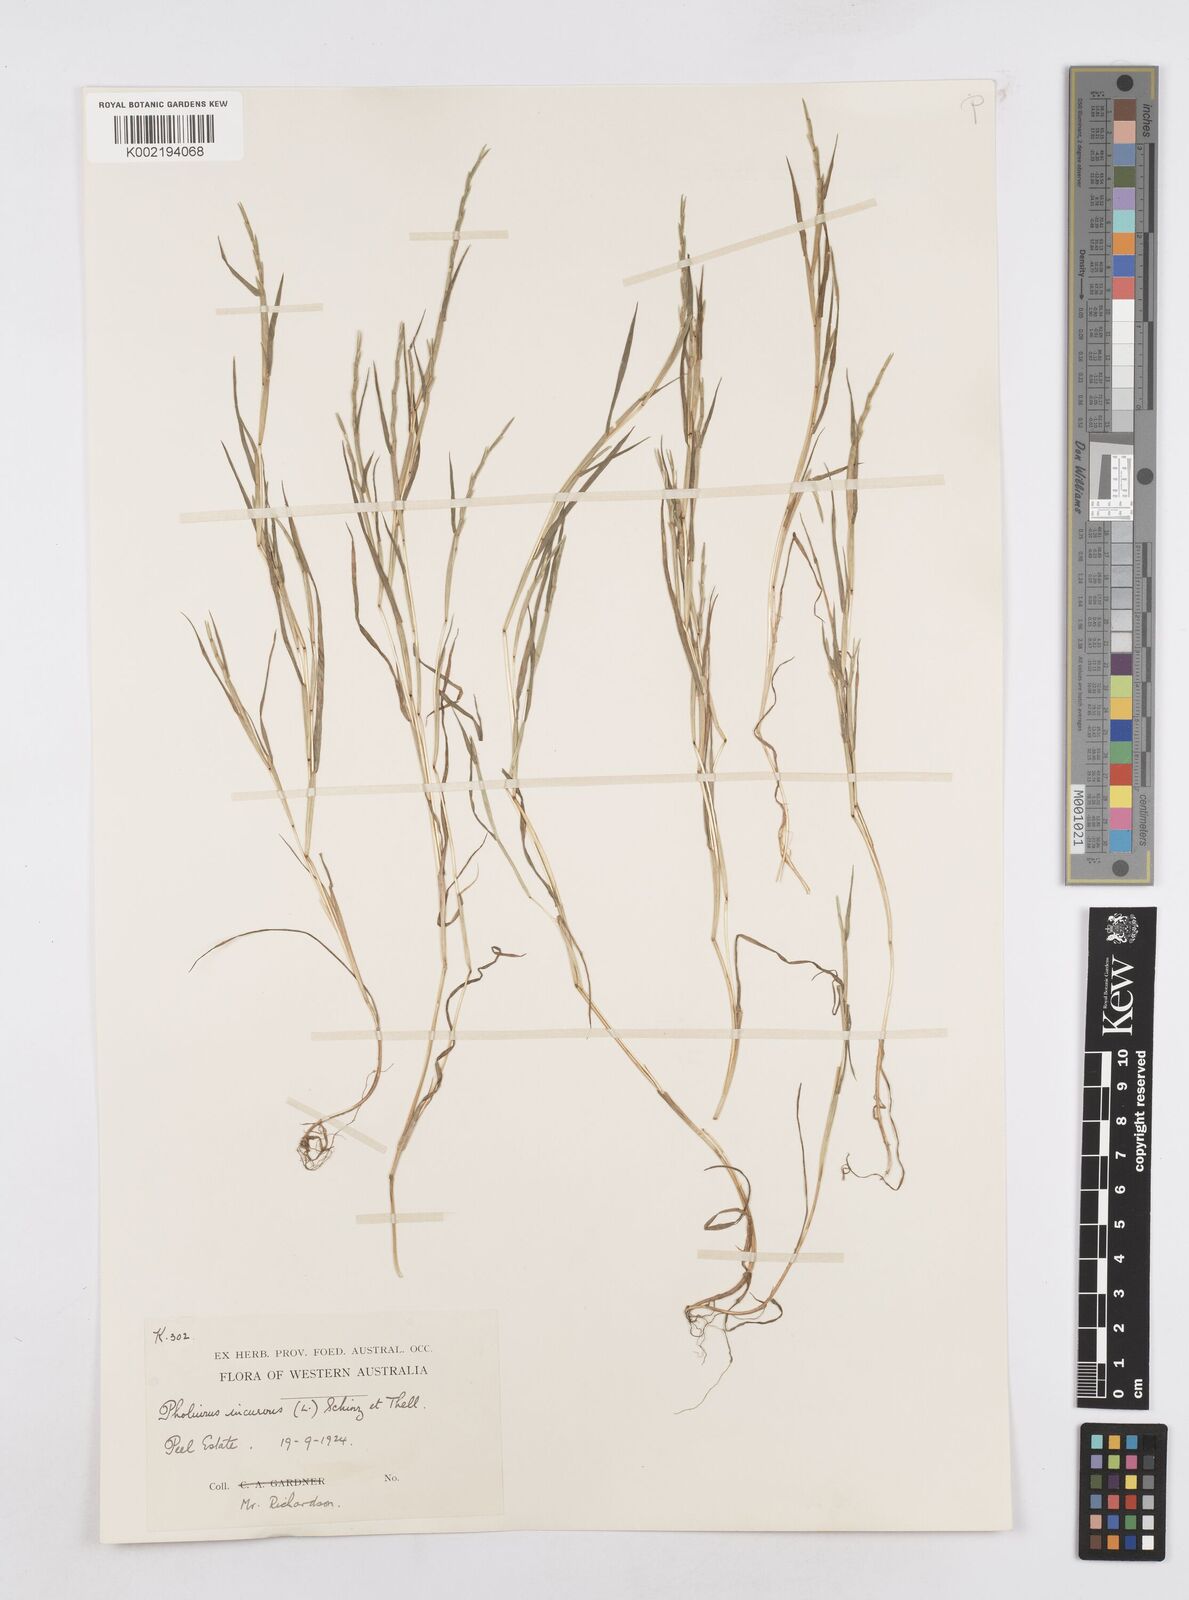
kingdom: Plantae
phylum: Tracheophyta
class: Liliopsida
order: Poales
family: Poaceae
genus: Parapholis
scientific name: Parapholis incurva
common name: Curved sicklegrass
